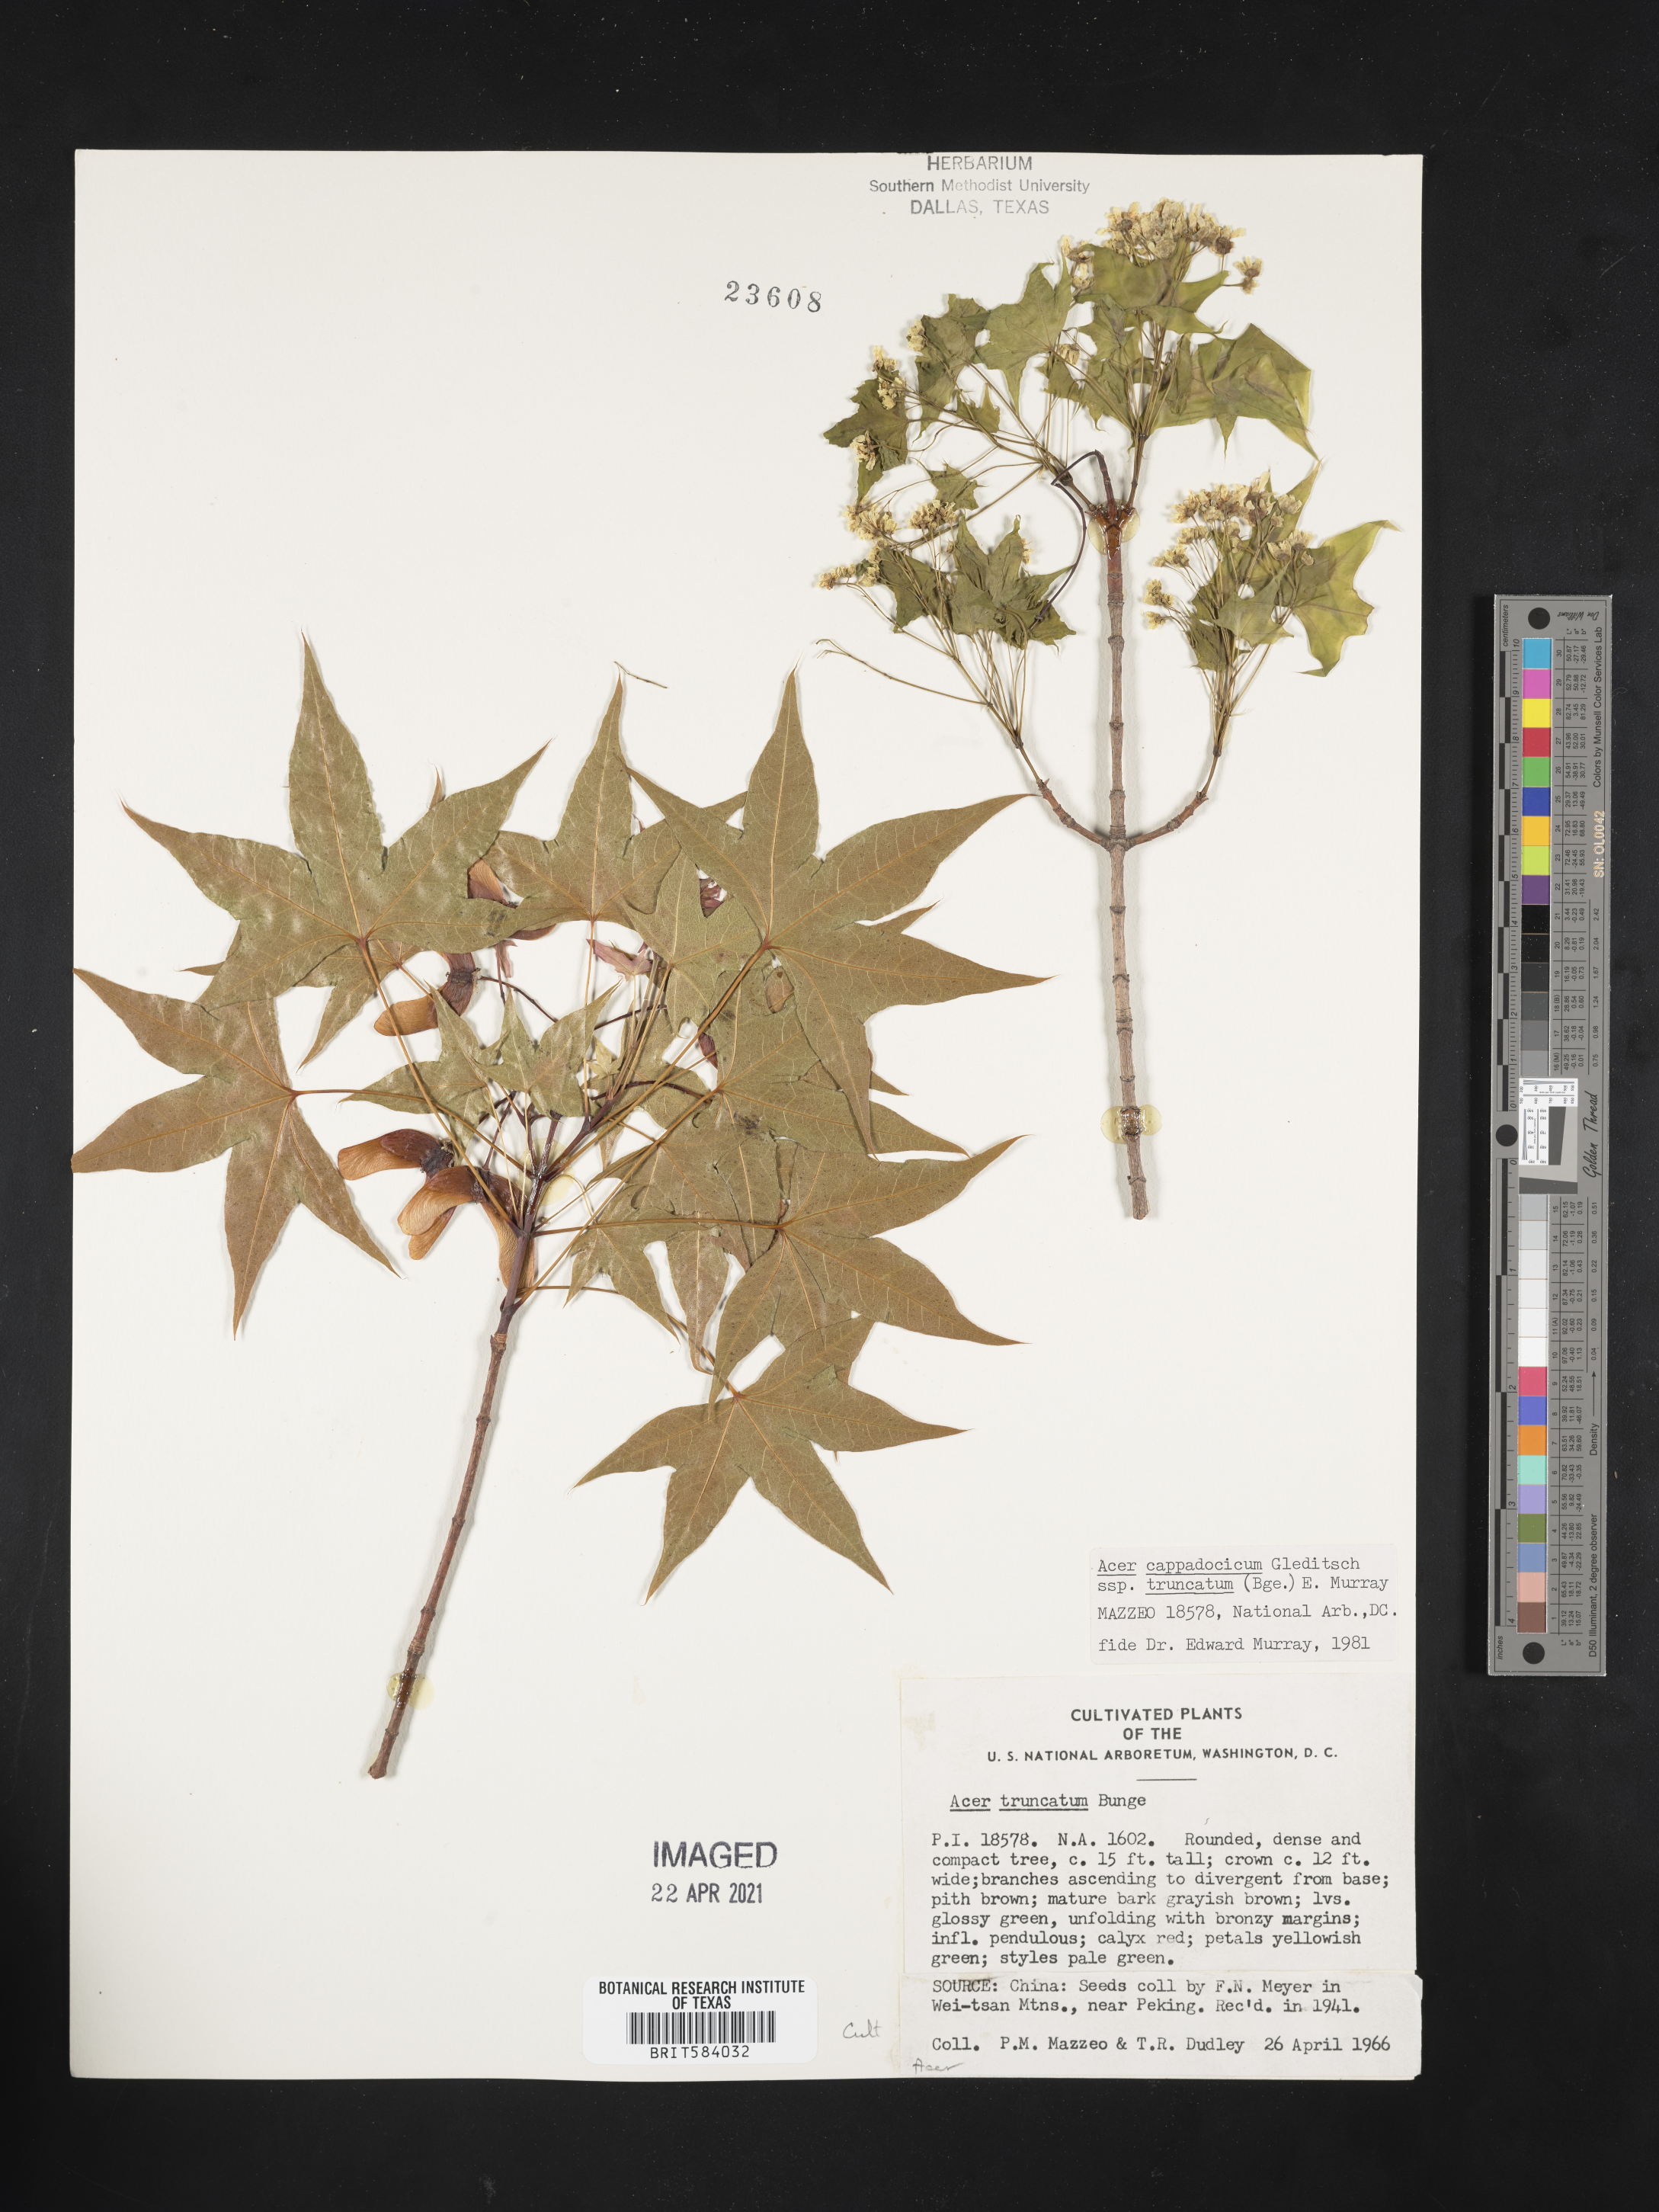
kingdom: Plantae
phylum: Tracheophyta
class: Magnoliopsida
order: Sapindales
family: Sapindaceae
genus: Acer
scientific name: Acer truncatum
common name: Shantung maple
